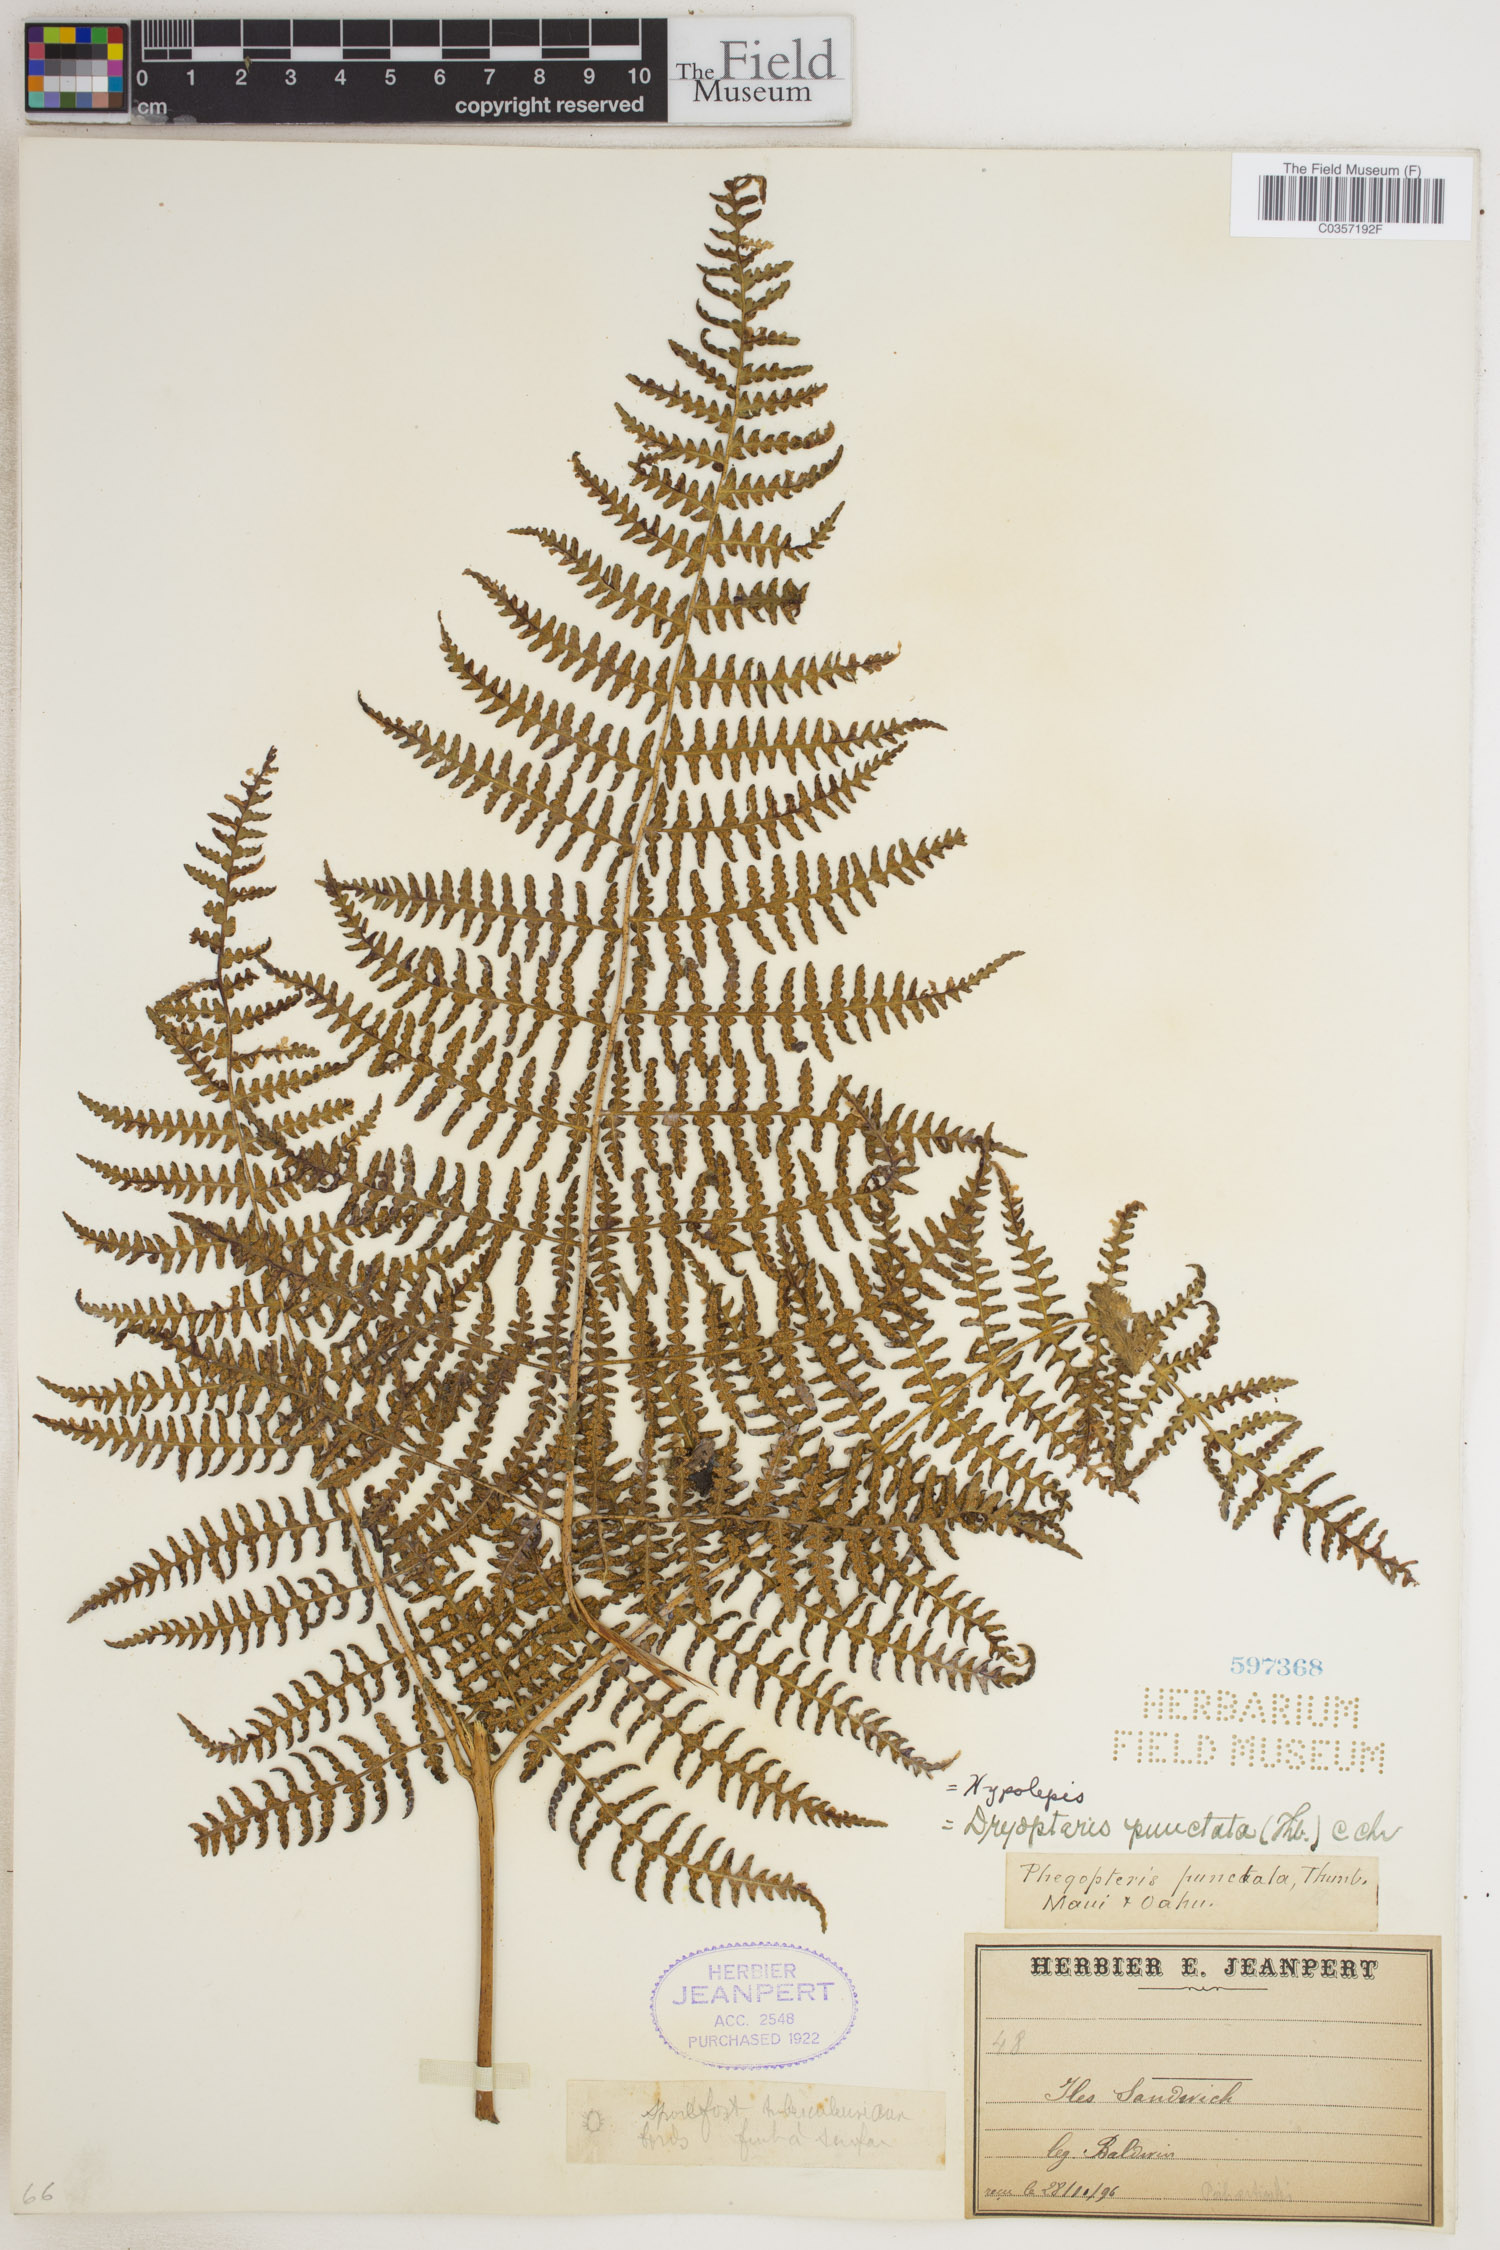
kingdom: Plantae
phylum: Tracheophyta
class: Polypodiopsida
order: Polypodiales
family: Dennstaedtiaceae
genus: Hypolepis
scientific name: Hypolepis punctata
